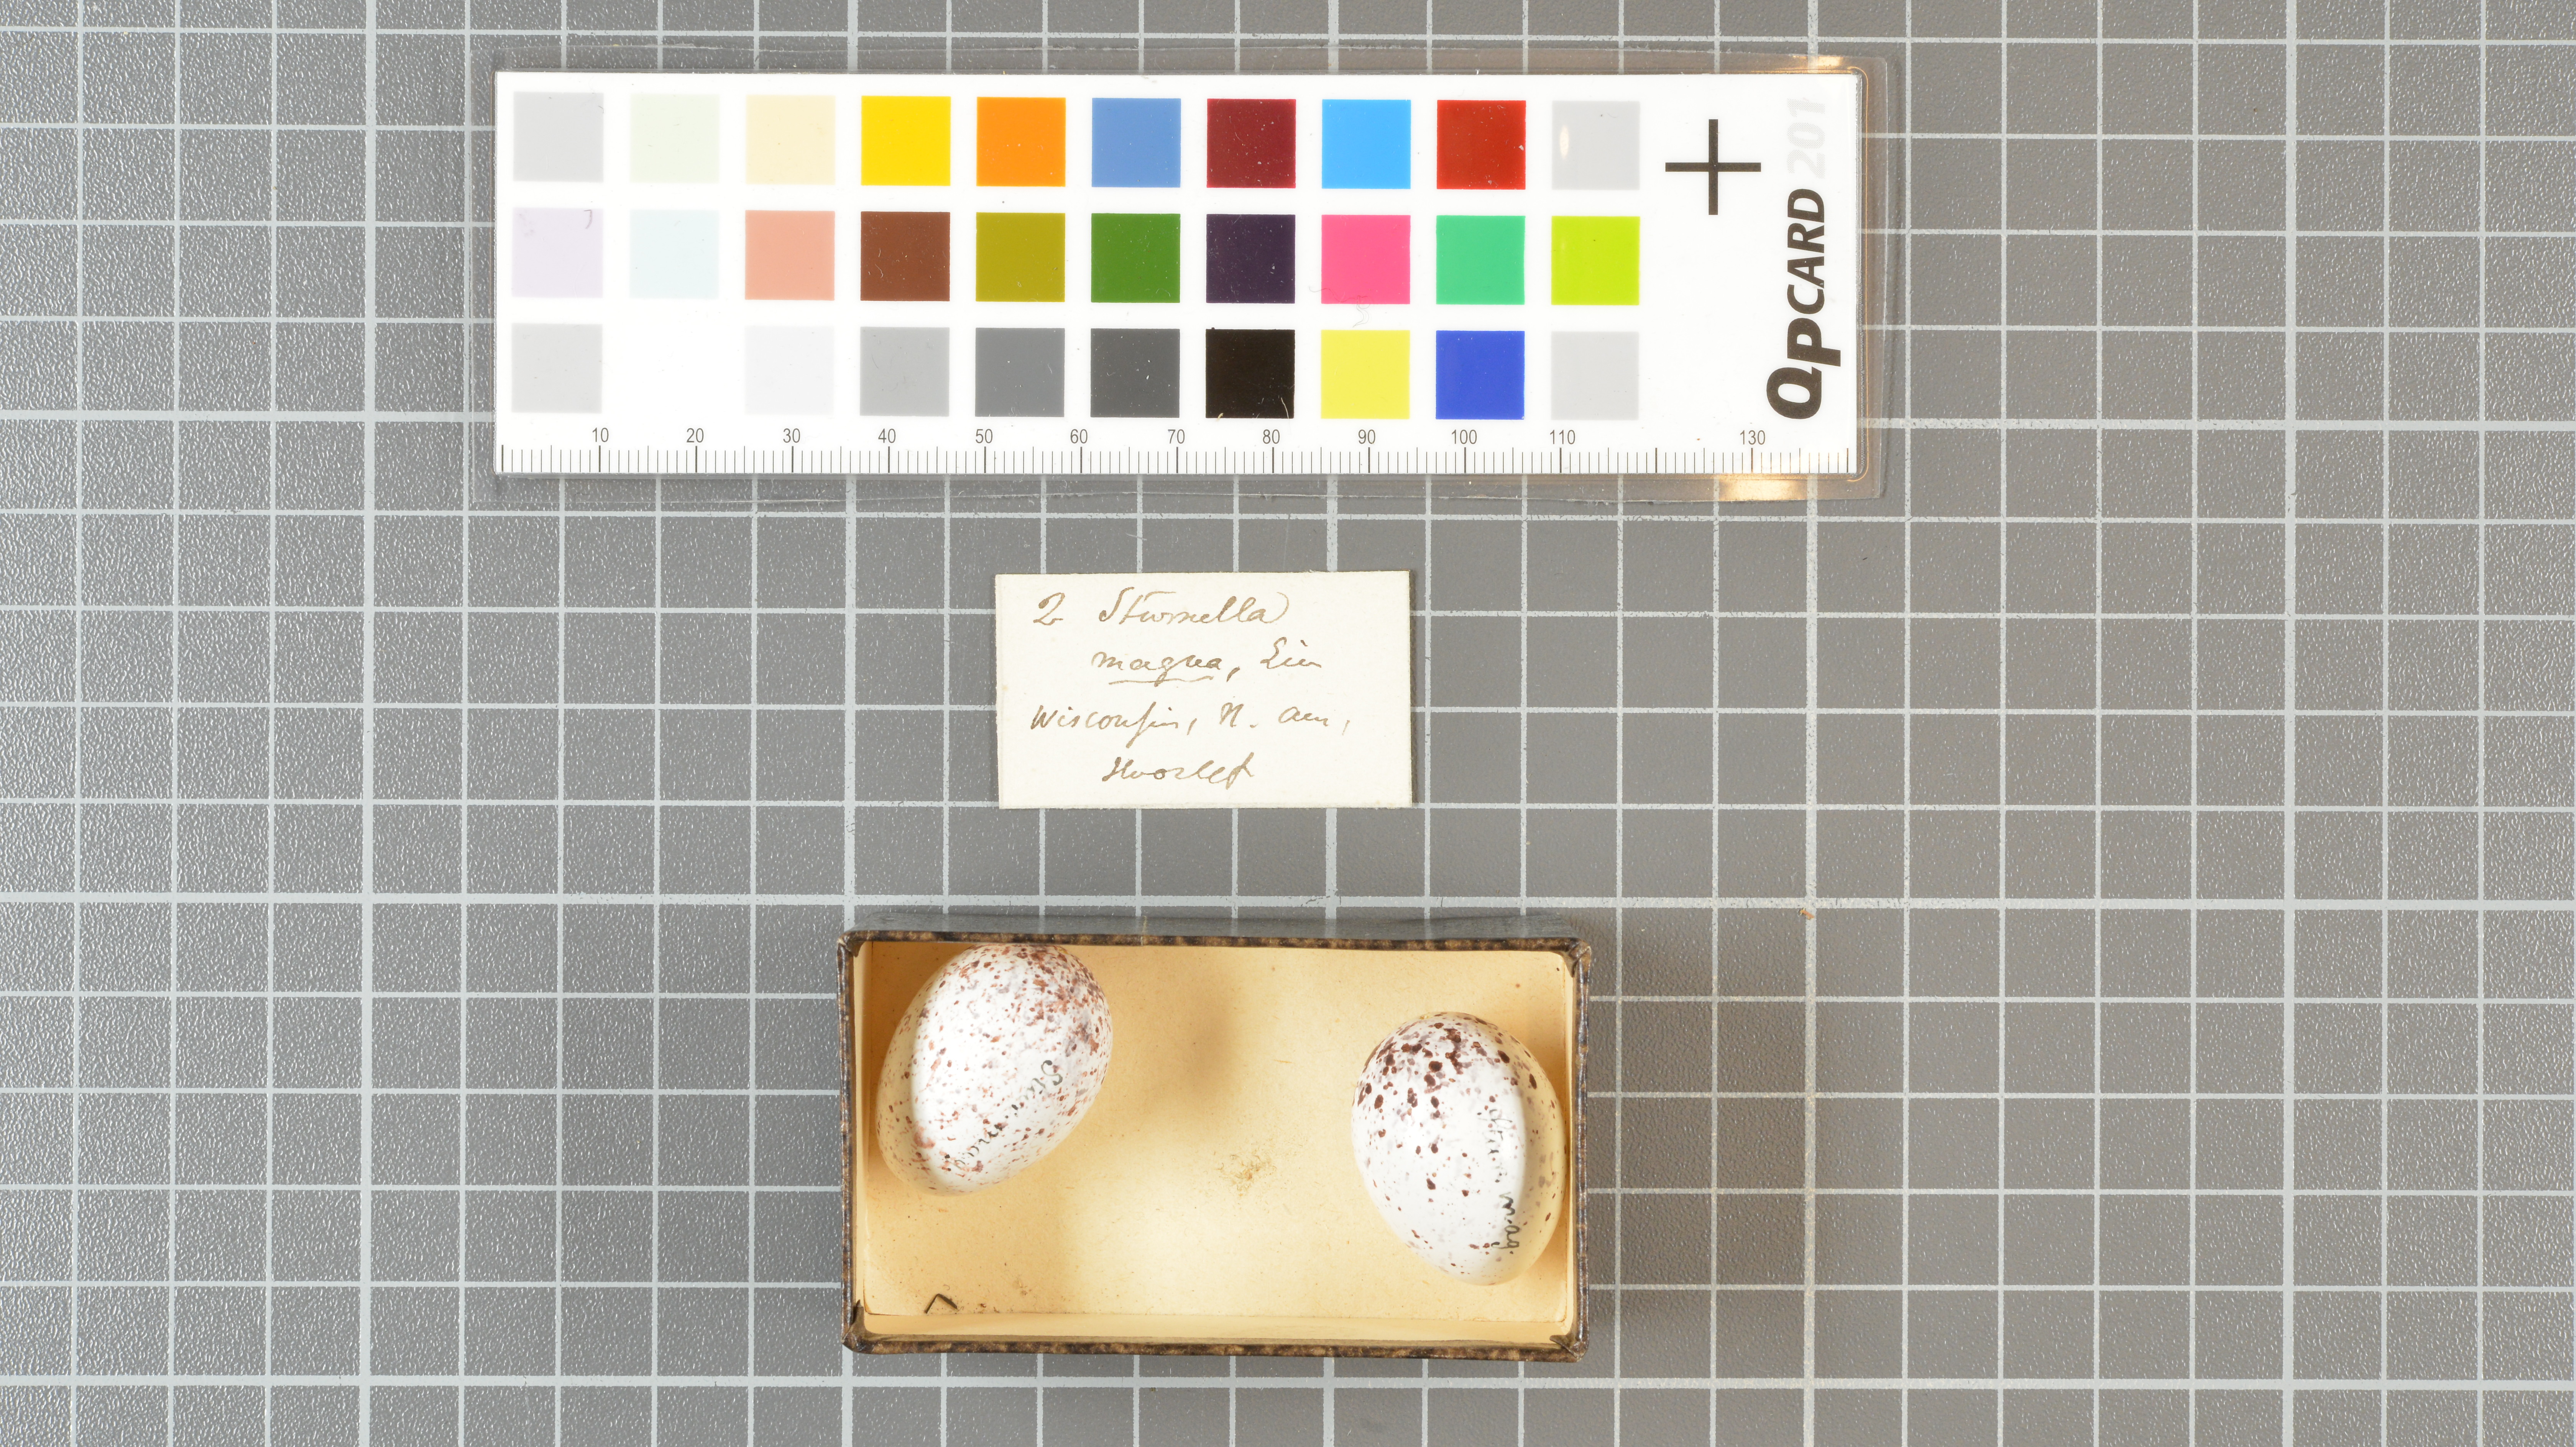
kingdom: Animalia
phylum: Chordata
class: Aves
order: Passeriformes
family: Icteridae
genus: Sturnella
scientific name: Sturnella magna
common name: Eastern meadowlark
